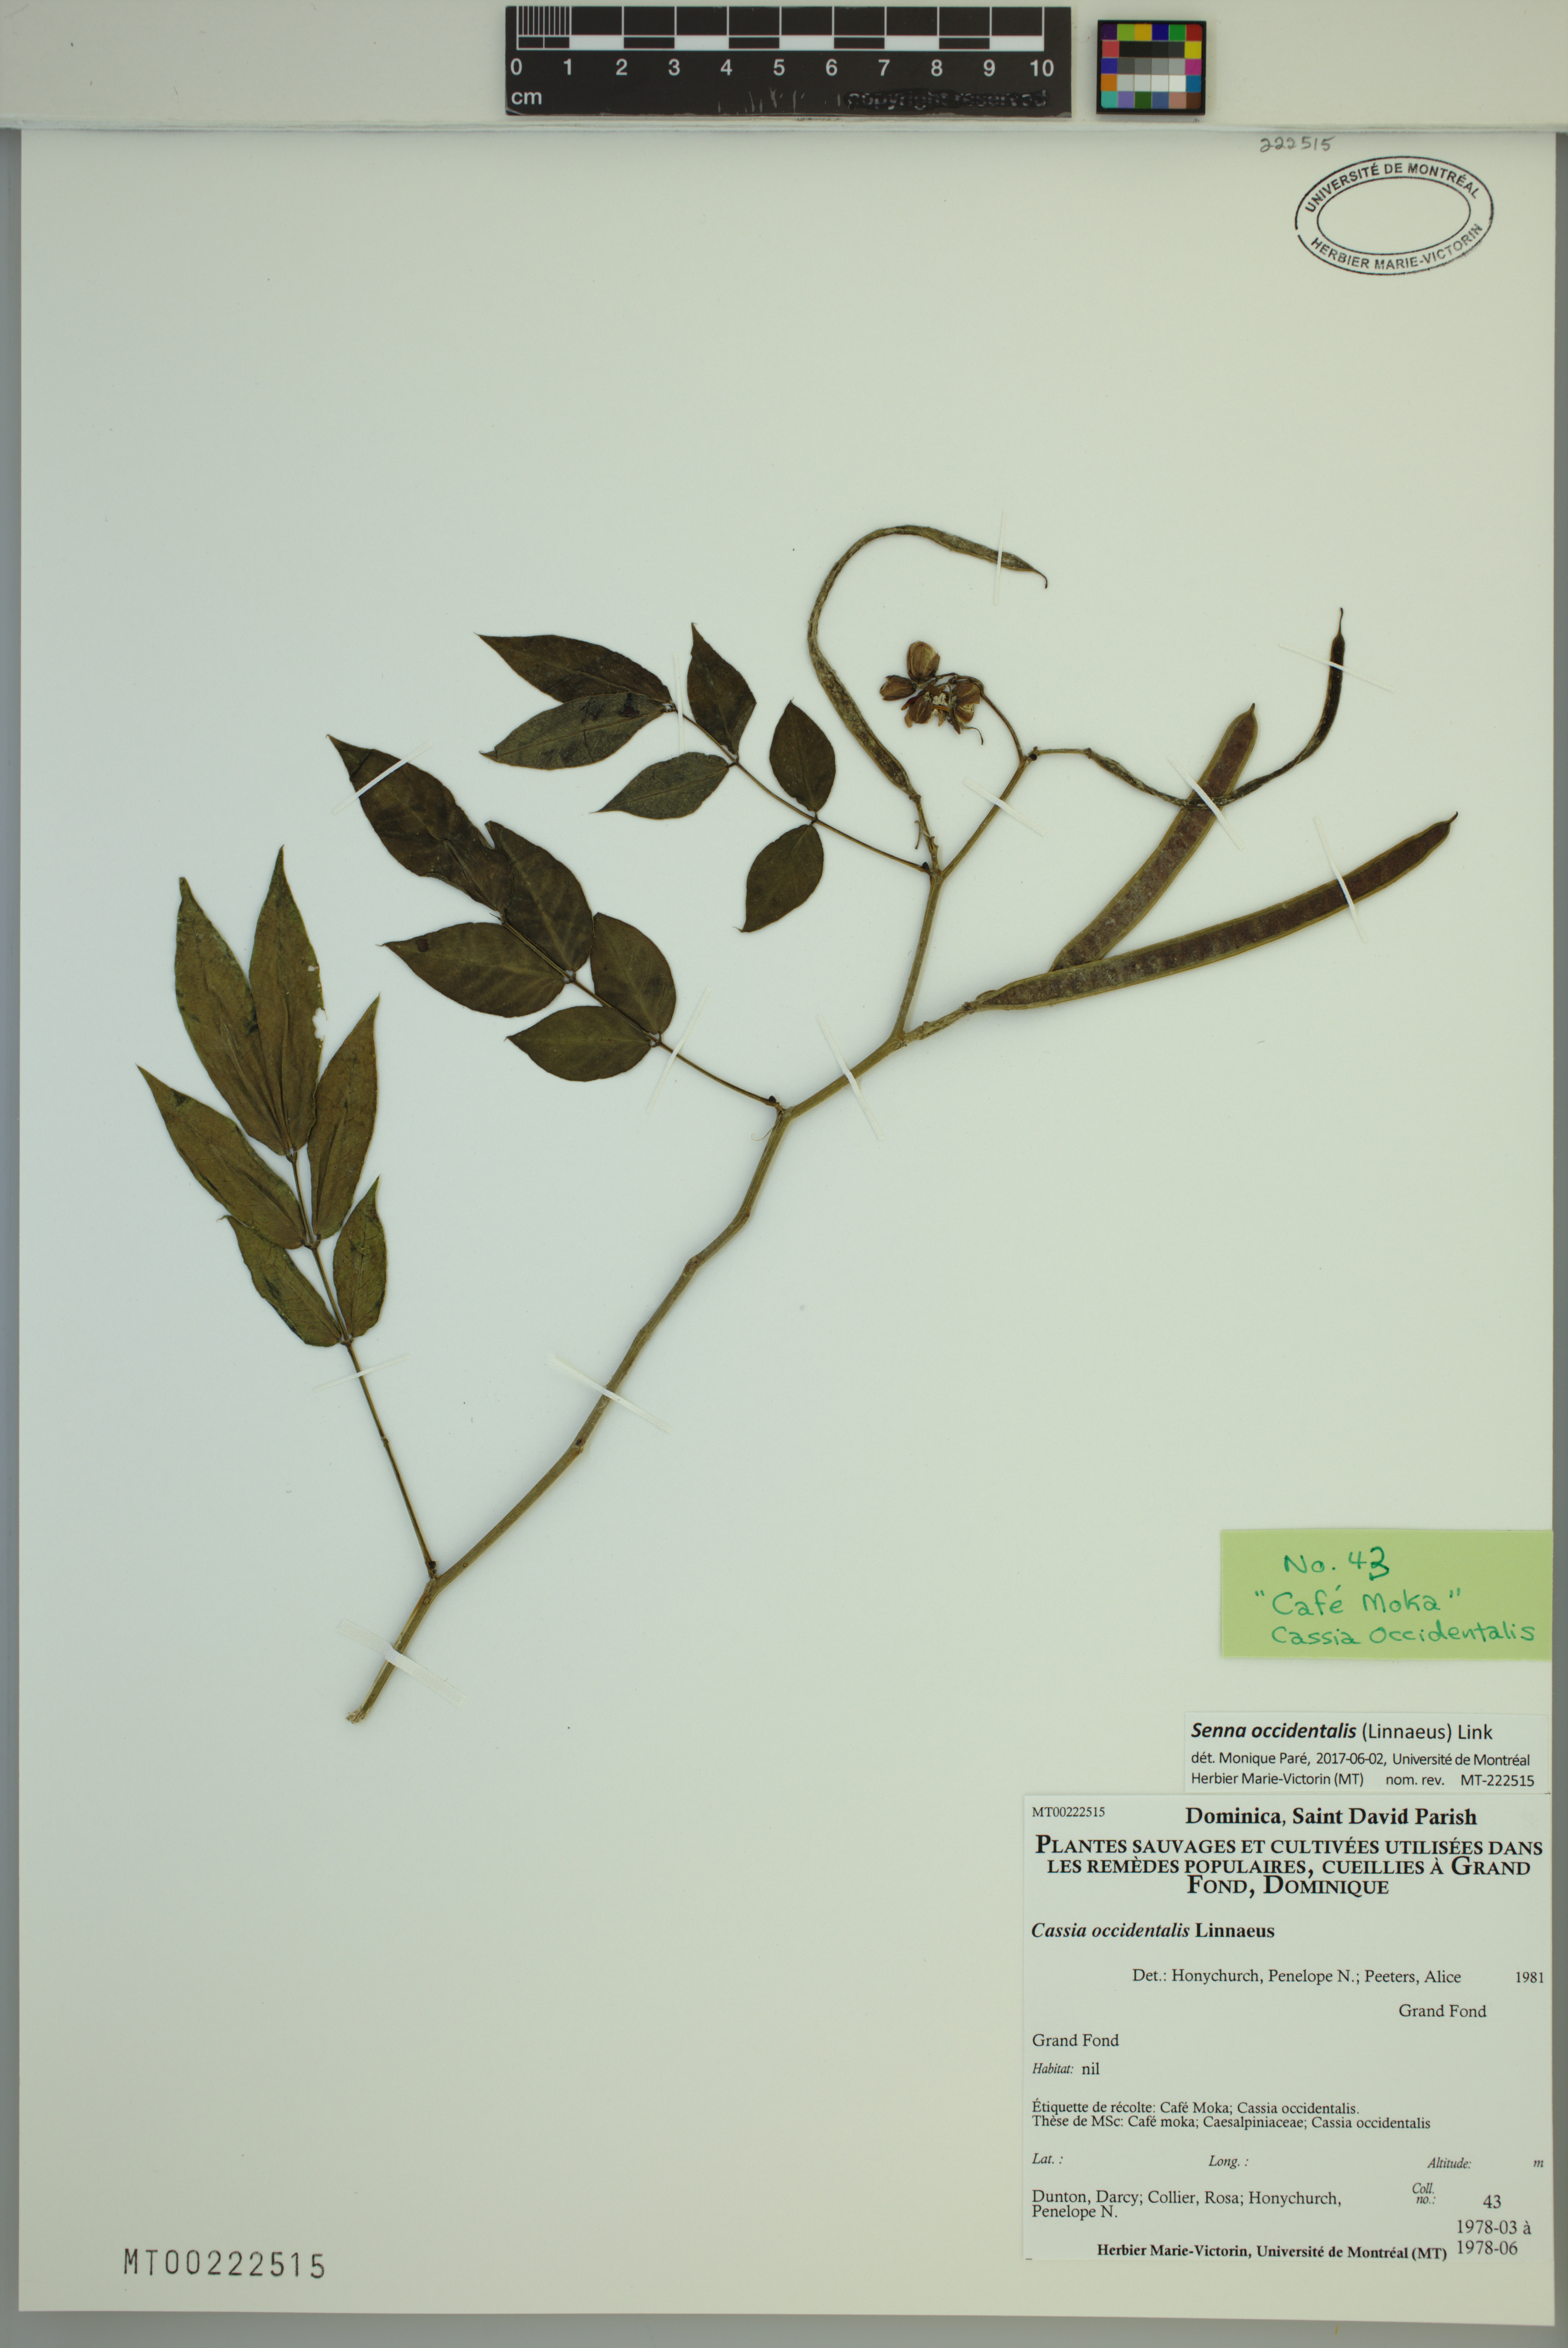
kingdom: Plantae
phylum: Tracheophyta
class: Magnoliopsida
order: Fabales
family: Fabaceae
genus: Senna
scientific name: Senna occidentalis
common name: Septicweed
